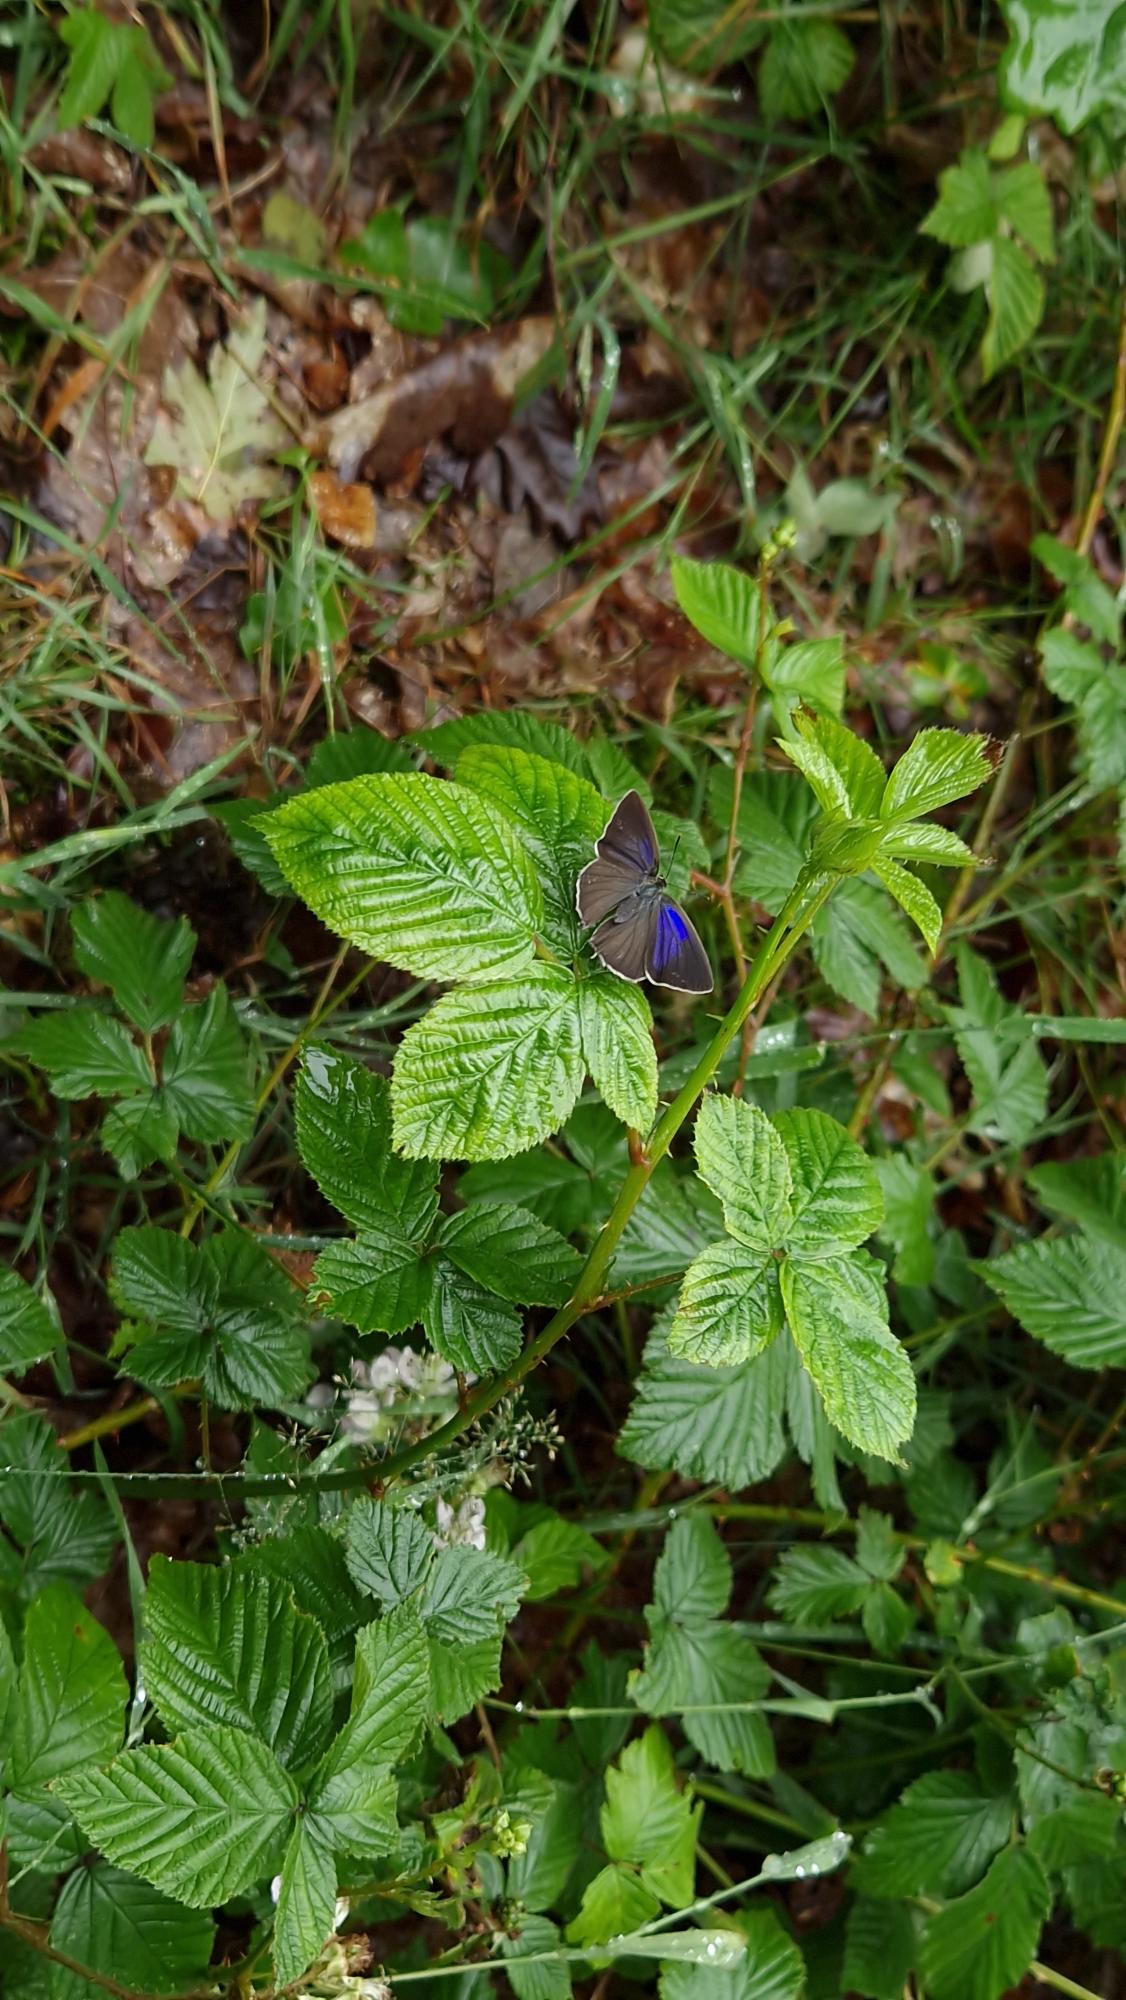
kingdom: Animalia
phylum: Arthropoda
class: Insecta
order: Lepidoptera
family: Lycaenidae
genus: Quercusia
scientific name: Quercusia quercus
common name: Blåhale
